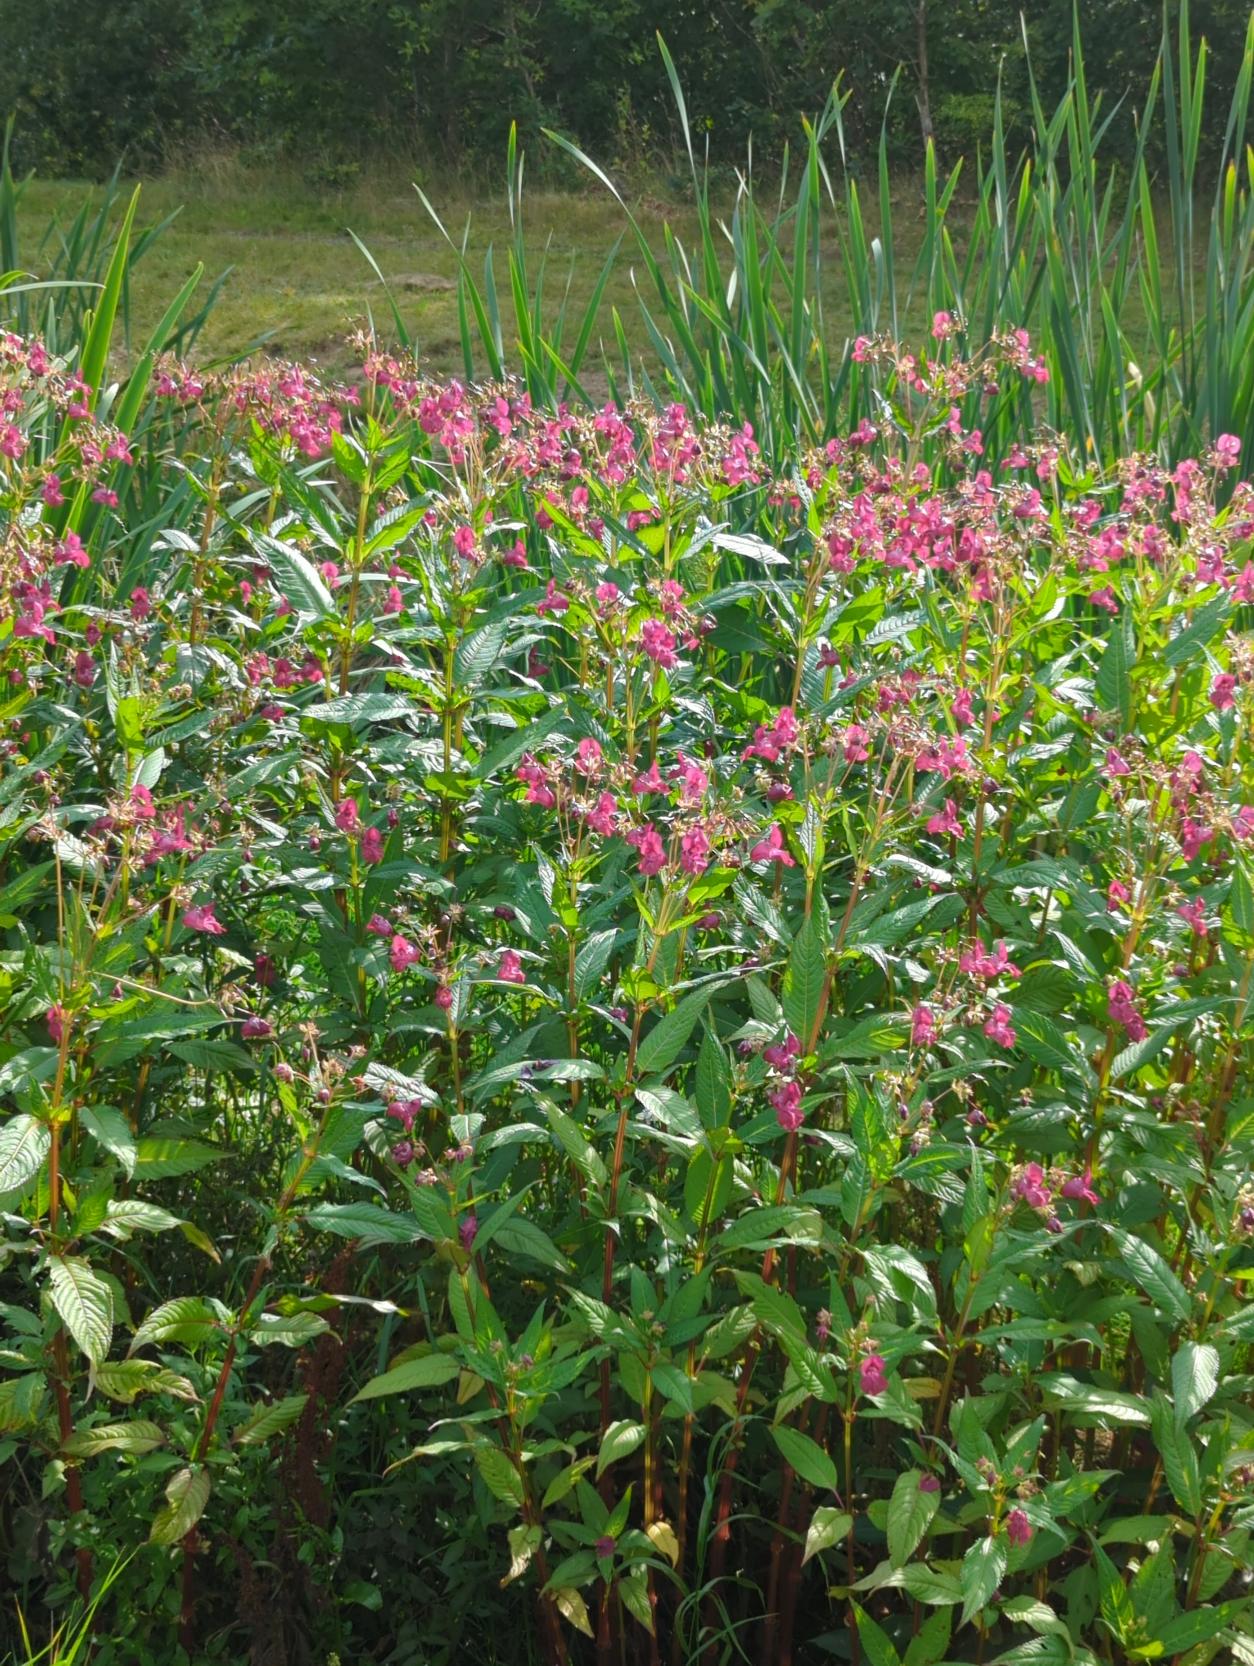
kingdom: Plantae
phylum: Tracheophyta
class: Magnoliopsida
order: Ericales
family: Balsaminaceae
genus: Impatiens
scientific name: Impatiens glandulifera
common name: Kæmpe-balsamin
